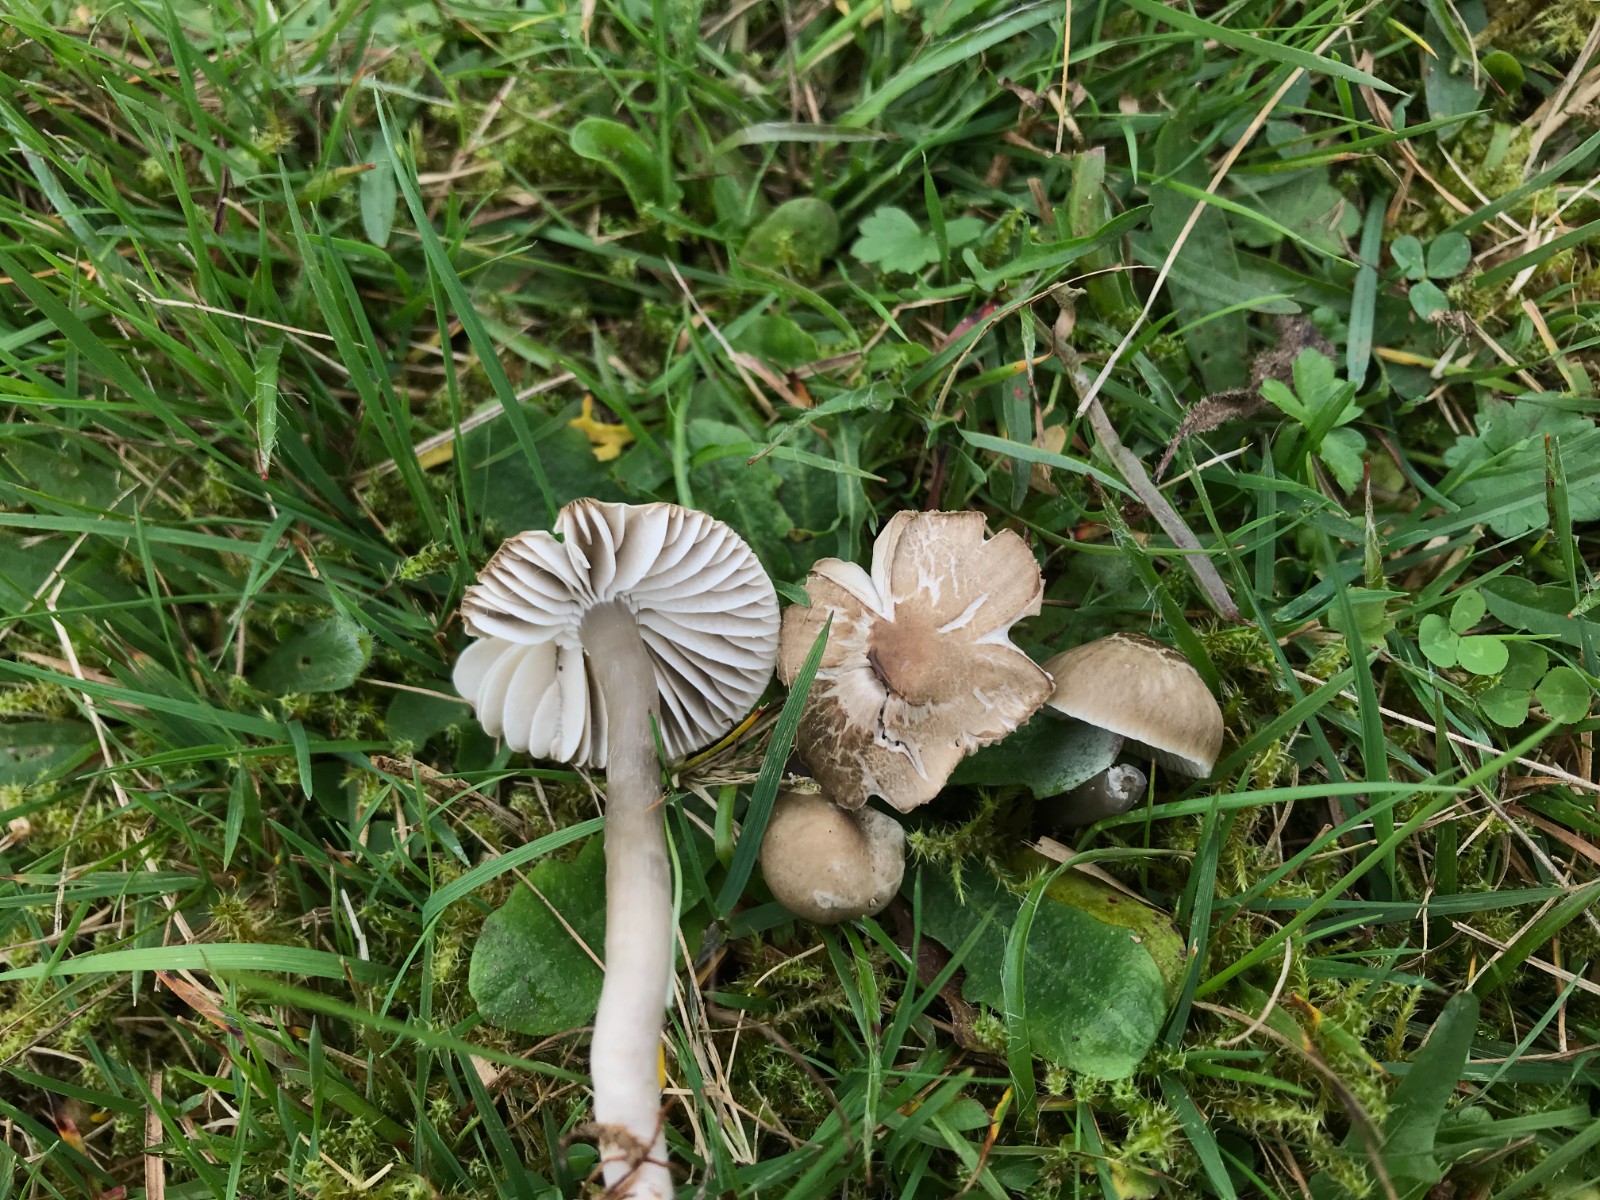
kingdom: Fungi
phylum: Basidiomycota
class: Agaricomycetes
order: Agaricales
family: Hygrophoraceae
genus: Gliophorus
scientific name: Gliophorus irrigatus
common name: slimet vokshat
